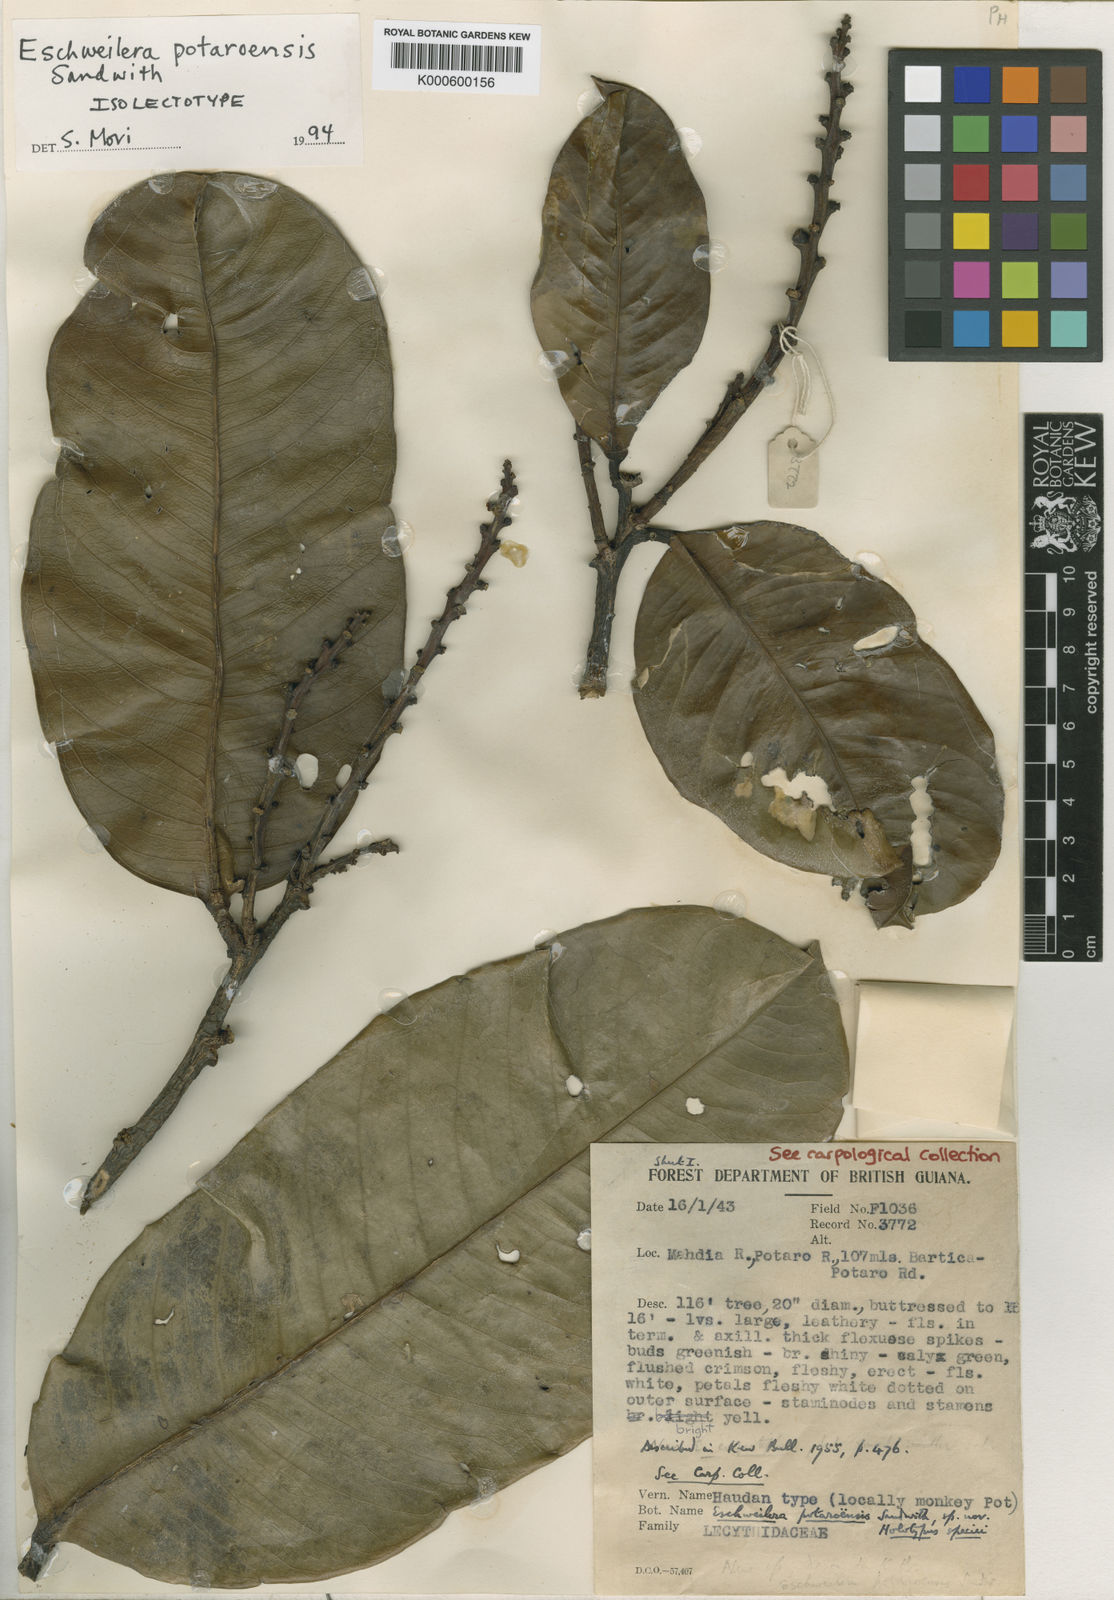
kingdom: Plantae
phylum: Tracheophyta
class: Magnoliopsida
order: Ericales
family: Lecythidaceae
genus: Eschweilera
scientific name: Eschweilera potaroensis
